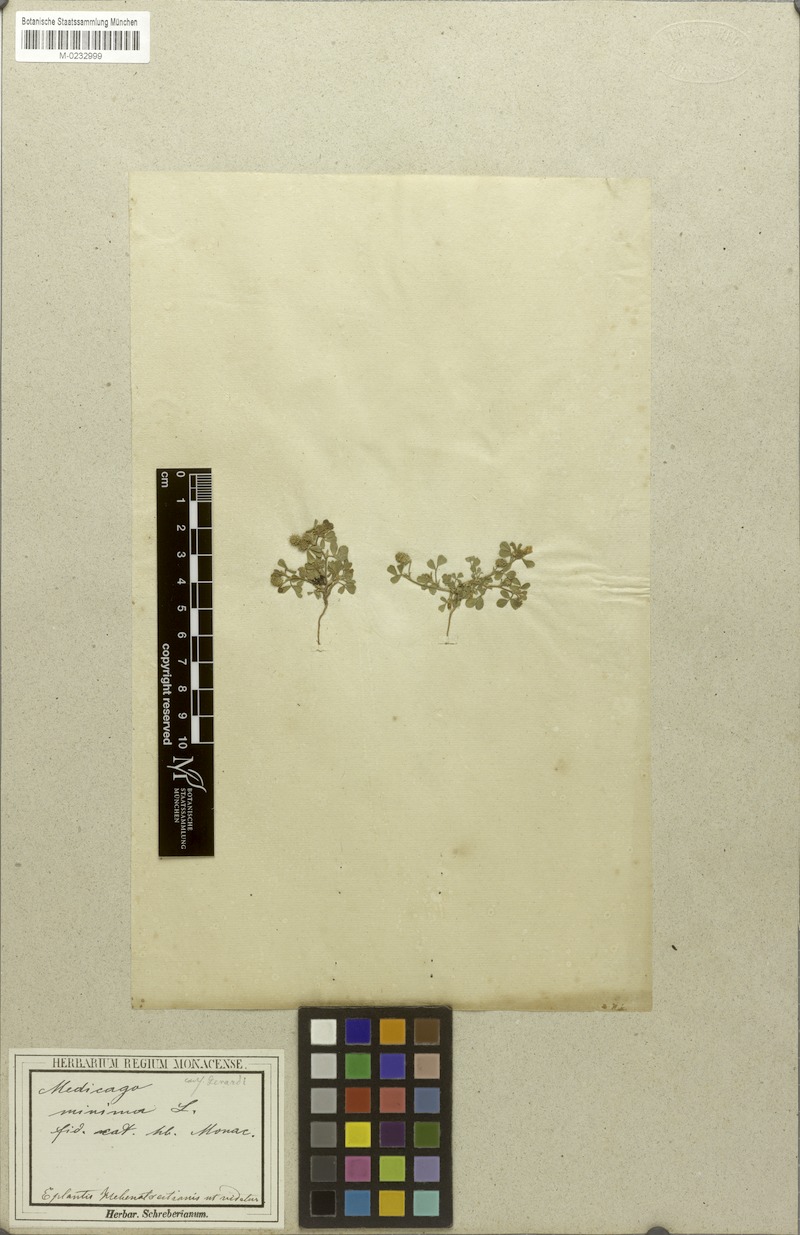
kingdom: Plantae
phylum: Tracheophyta
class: Magnoliopsida
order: Fabales
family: Fabaceae
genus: Medicago
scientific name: Medicago minima
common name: Little bur-clover
